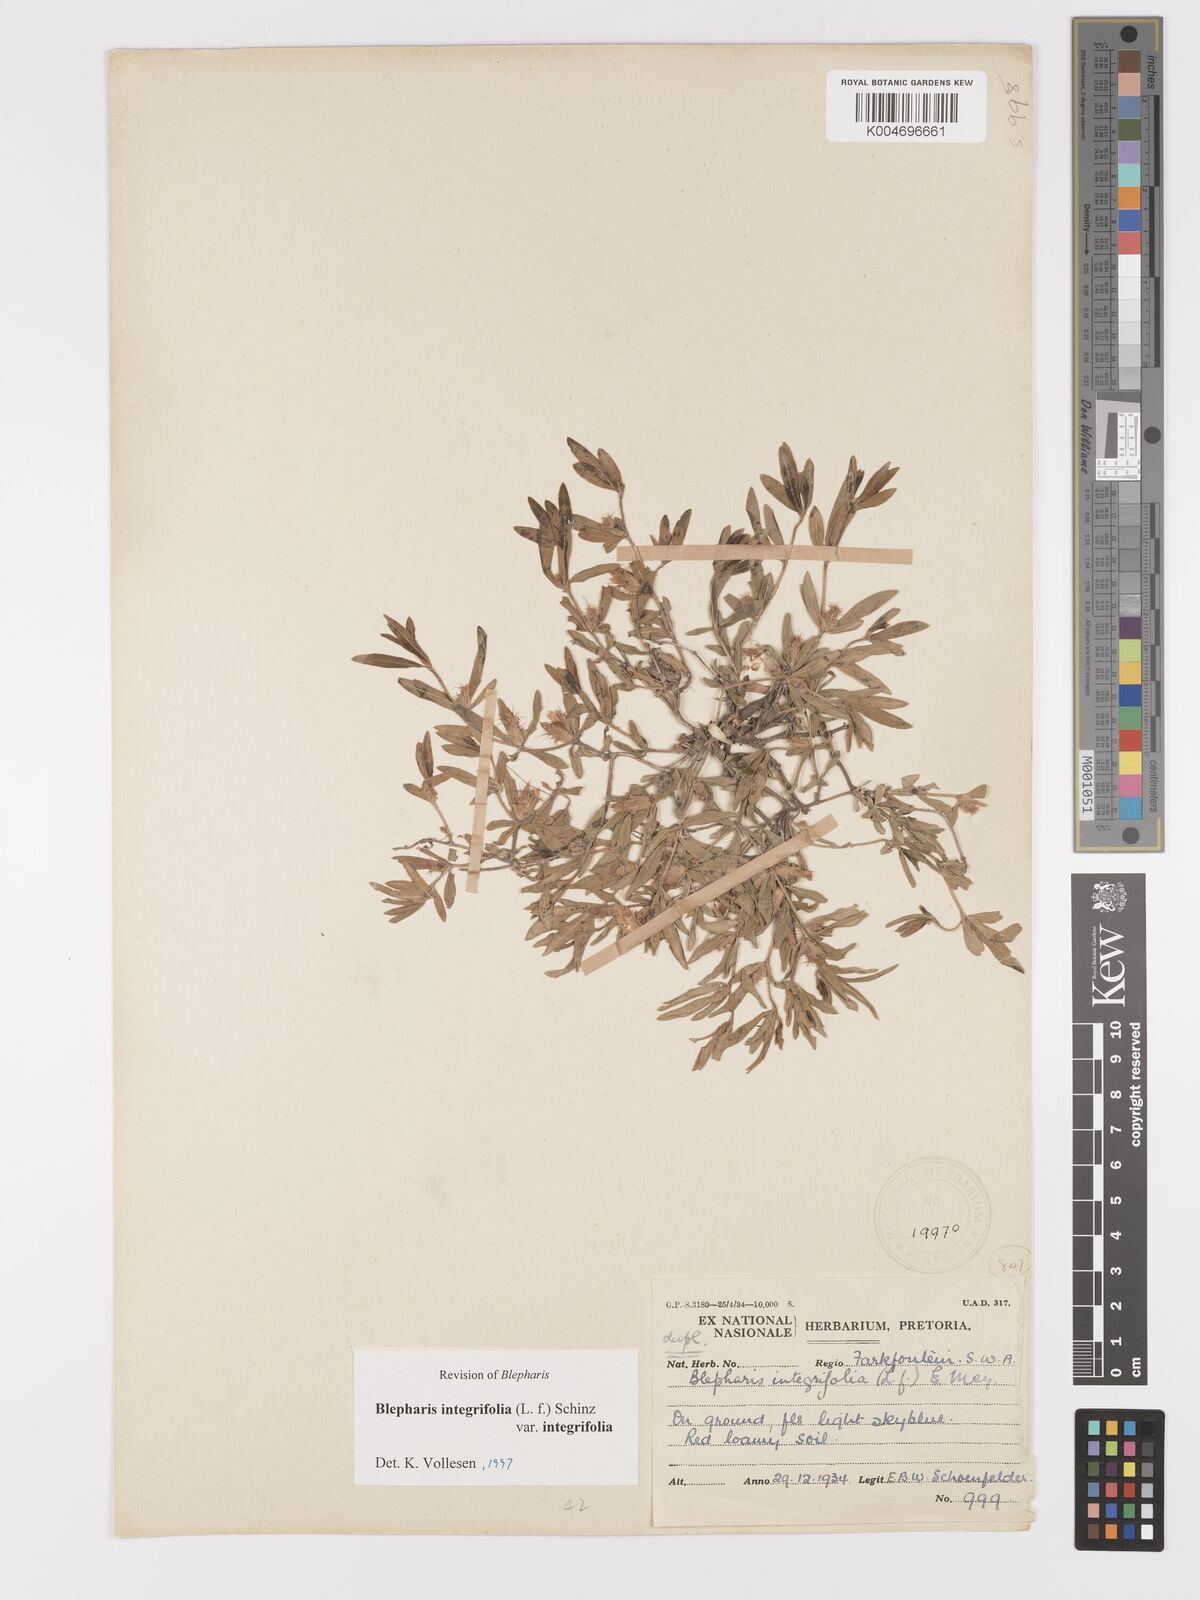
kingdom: Plantae
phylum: Tracheophyta
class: Magnoliopsida
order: Lamiales
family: Acanthaceae
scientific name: Acanthaceae
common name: Acanthaceae
